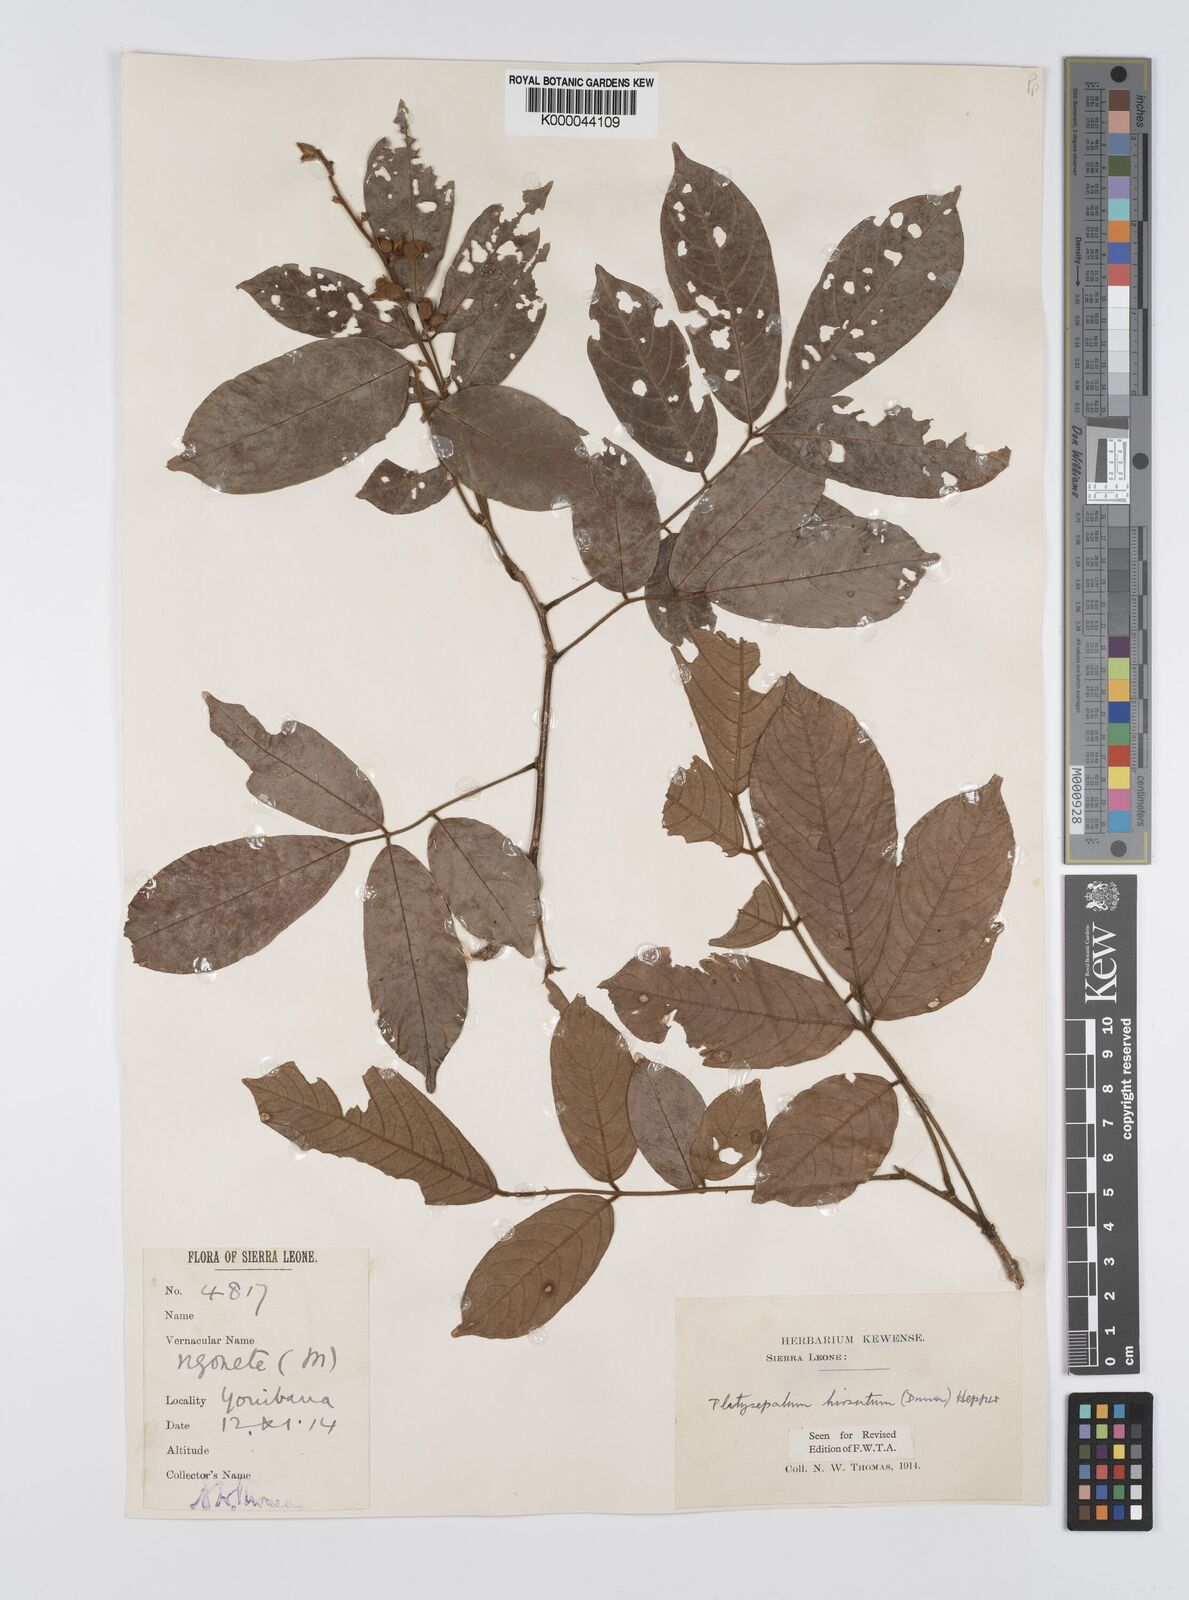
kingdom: Plantae
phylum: Tracheophyta
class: Magnoliopsida
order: Fabales
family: Fabaceae
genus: Platysepalum
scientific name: Platysepalum hirsutum
